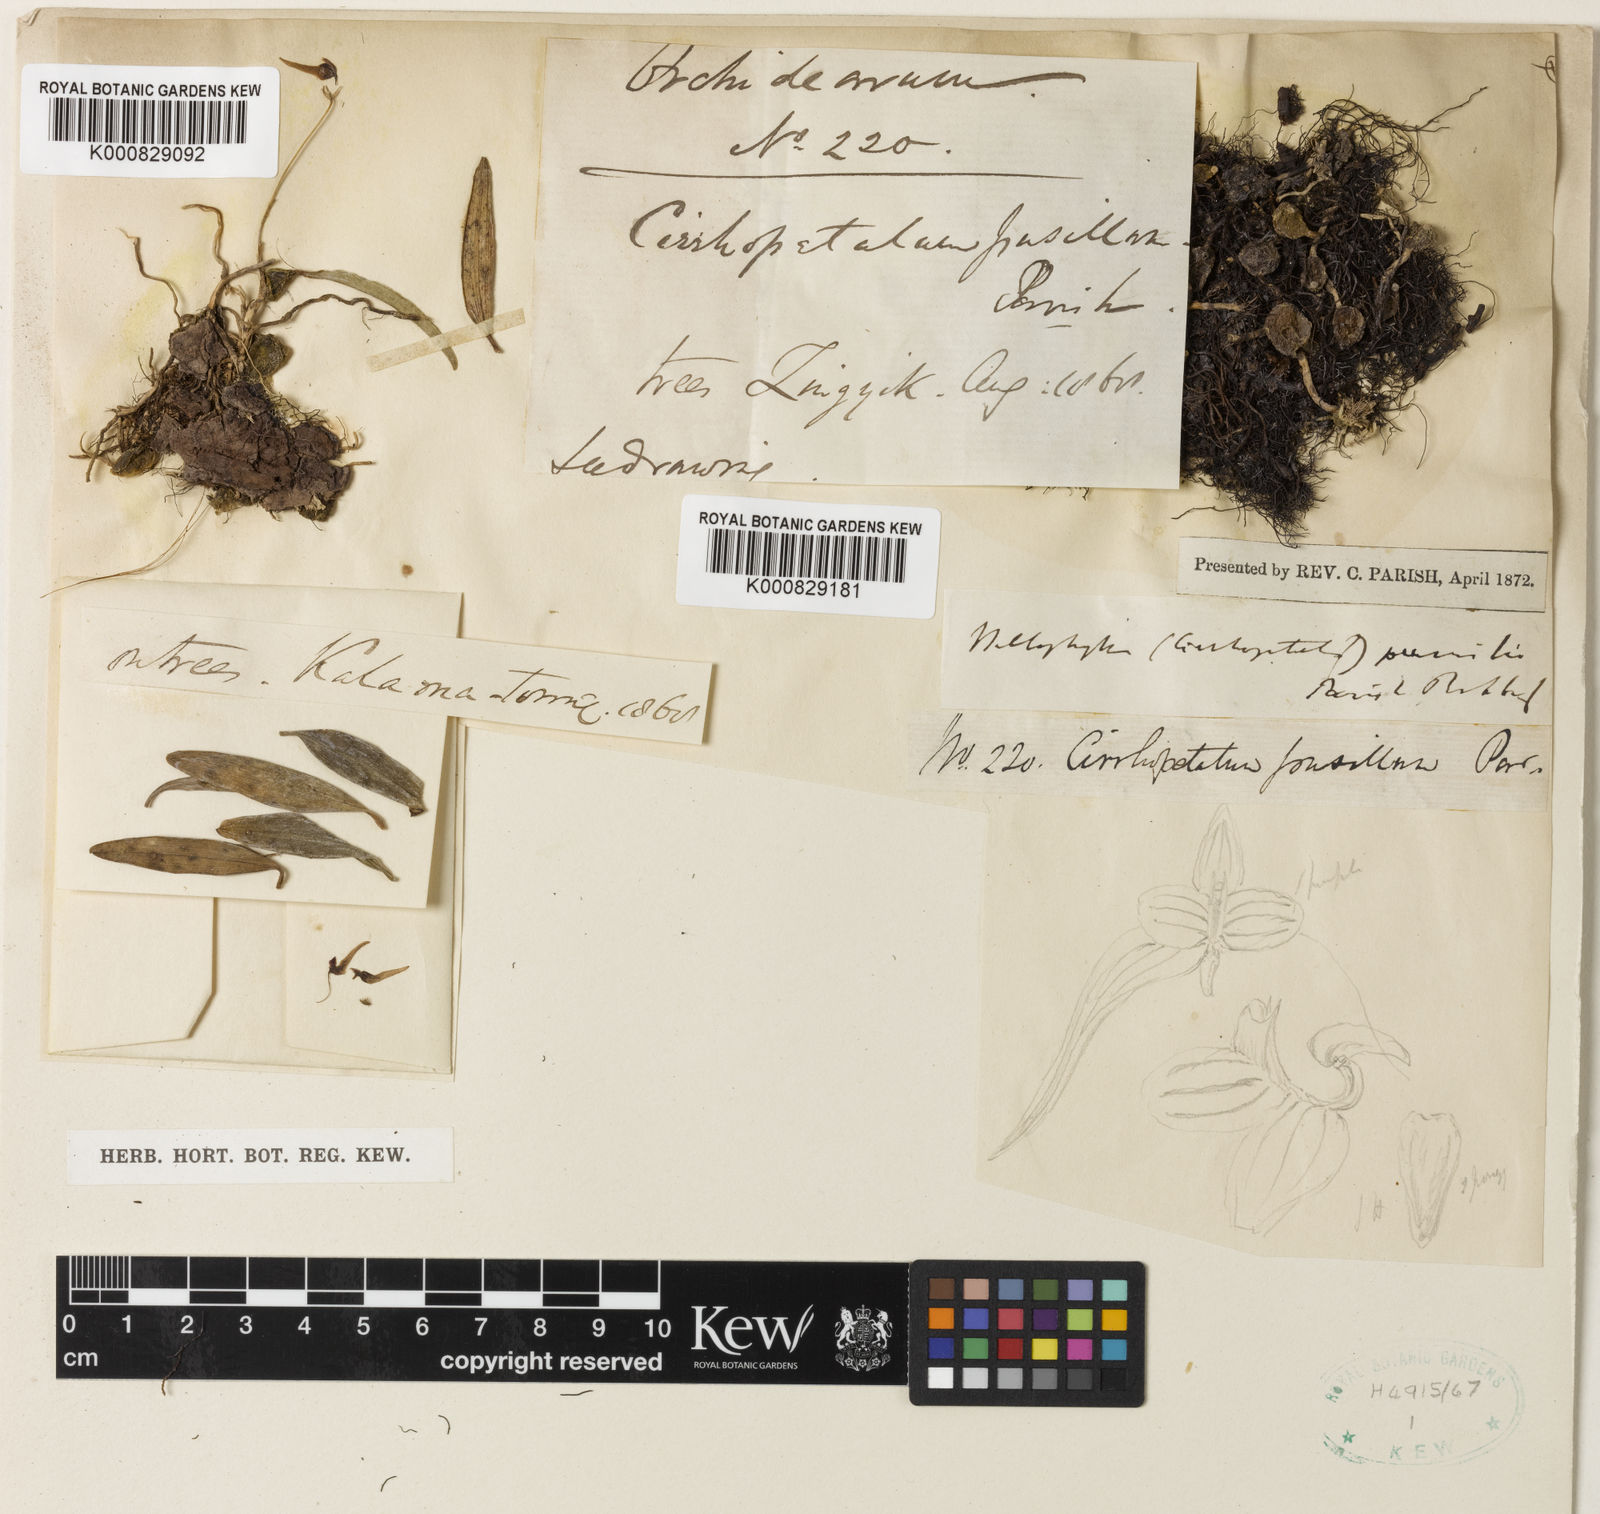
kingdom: Plantae
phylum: Tracheophyta
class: Liliopsida
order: Asparagales
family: Orchidaceae
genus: Bulbophyllum
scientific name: Bulbophyllum pumilio
